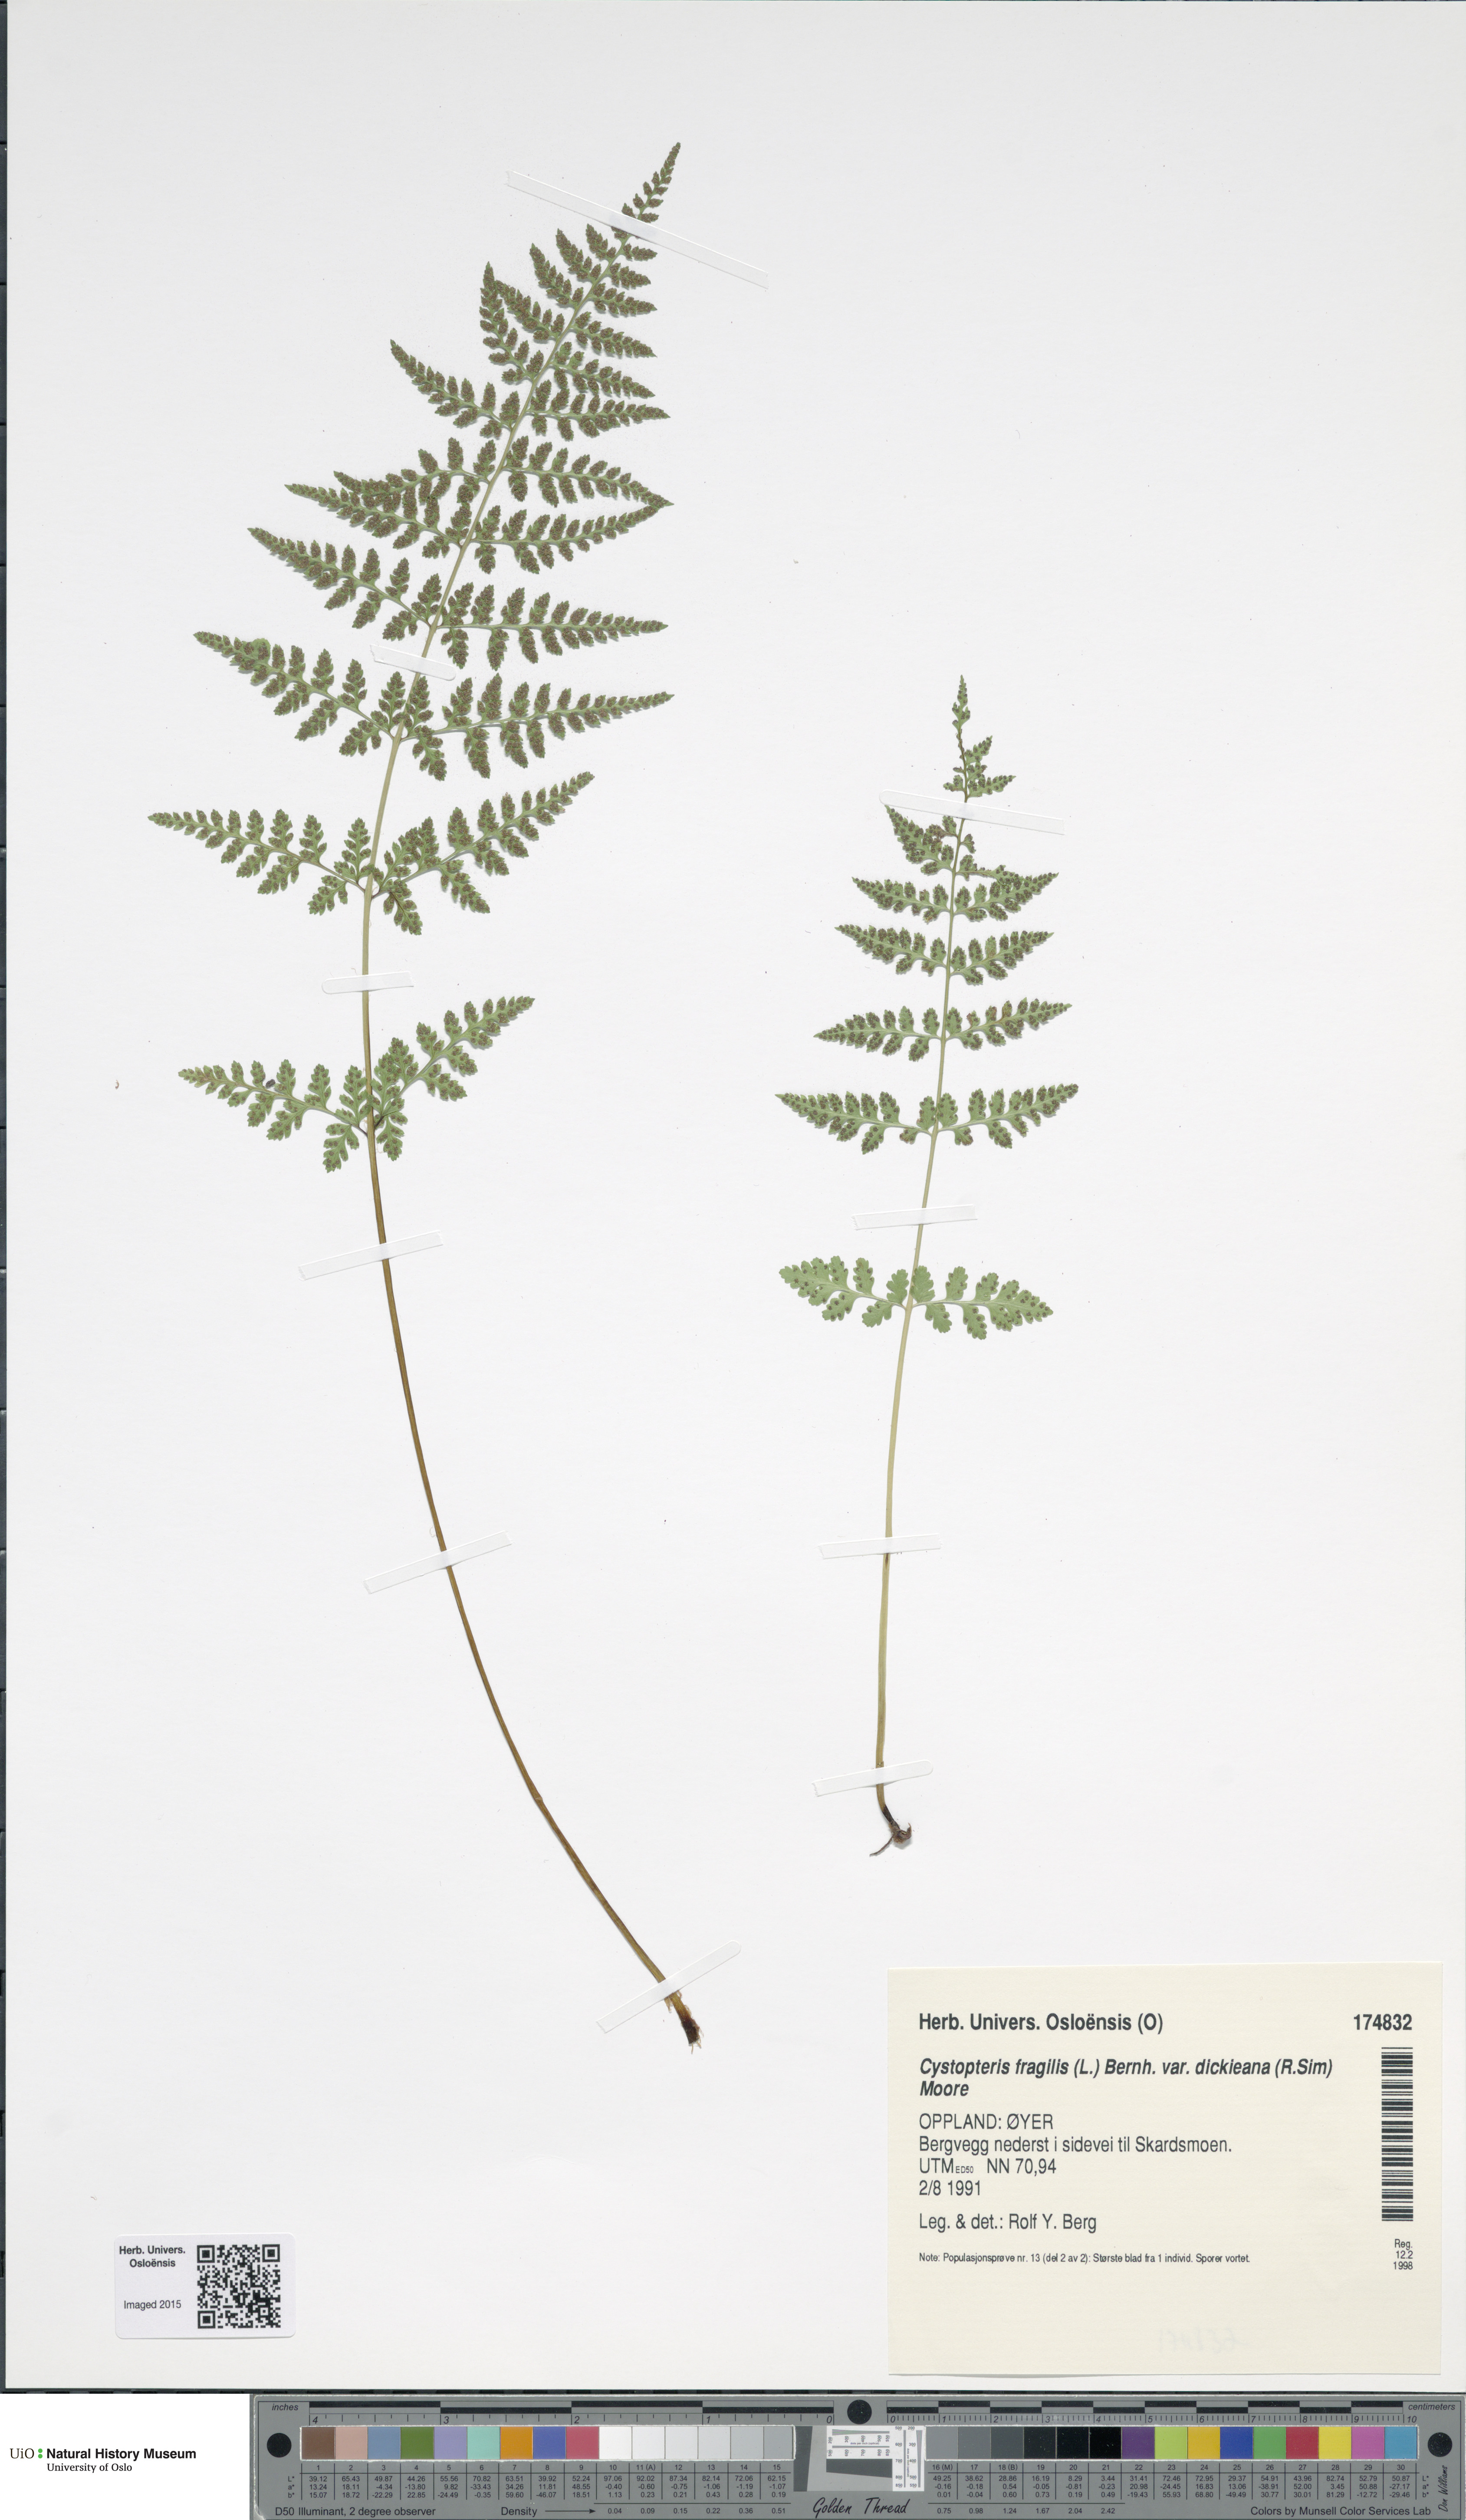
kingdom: Plantae
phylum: Tracheophyta
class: Polypodiopsida
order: Polypodiales
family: Cystopteridaceae
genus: Cystopteris
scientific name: Cystopteris dickieana
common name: Dickie's bladder-fern
